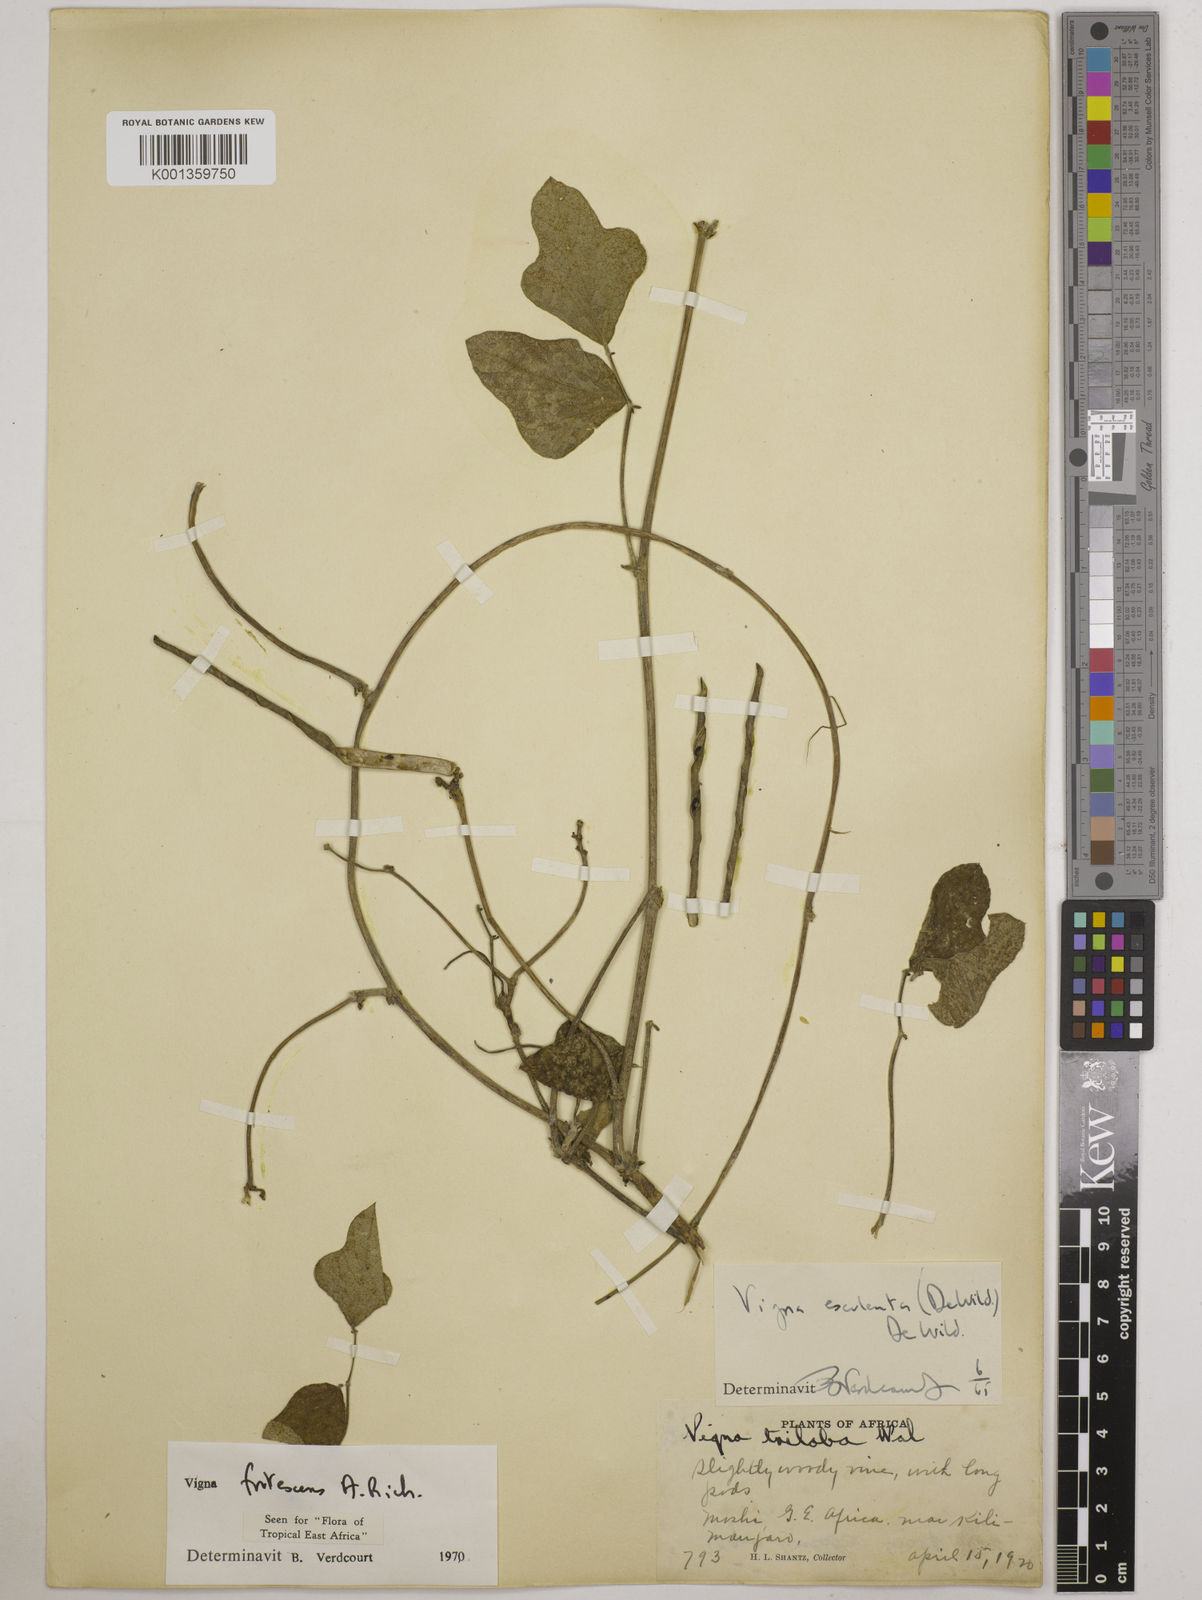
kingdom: Plantae
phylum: Tracheophyta
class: Magnoliopsida
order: Fabales
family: Fabaceae
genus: Vigna
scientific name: Vigna frutescens
